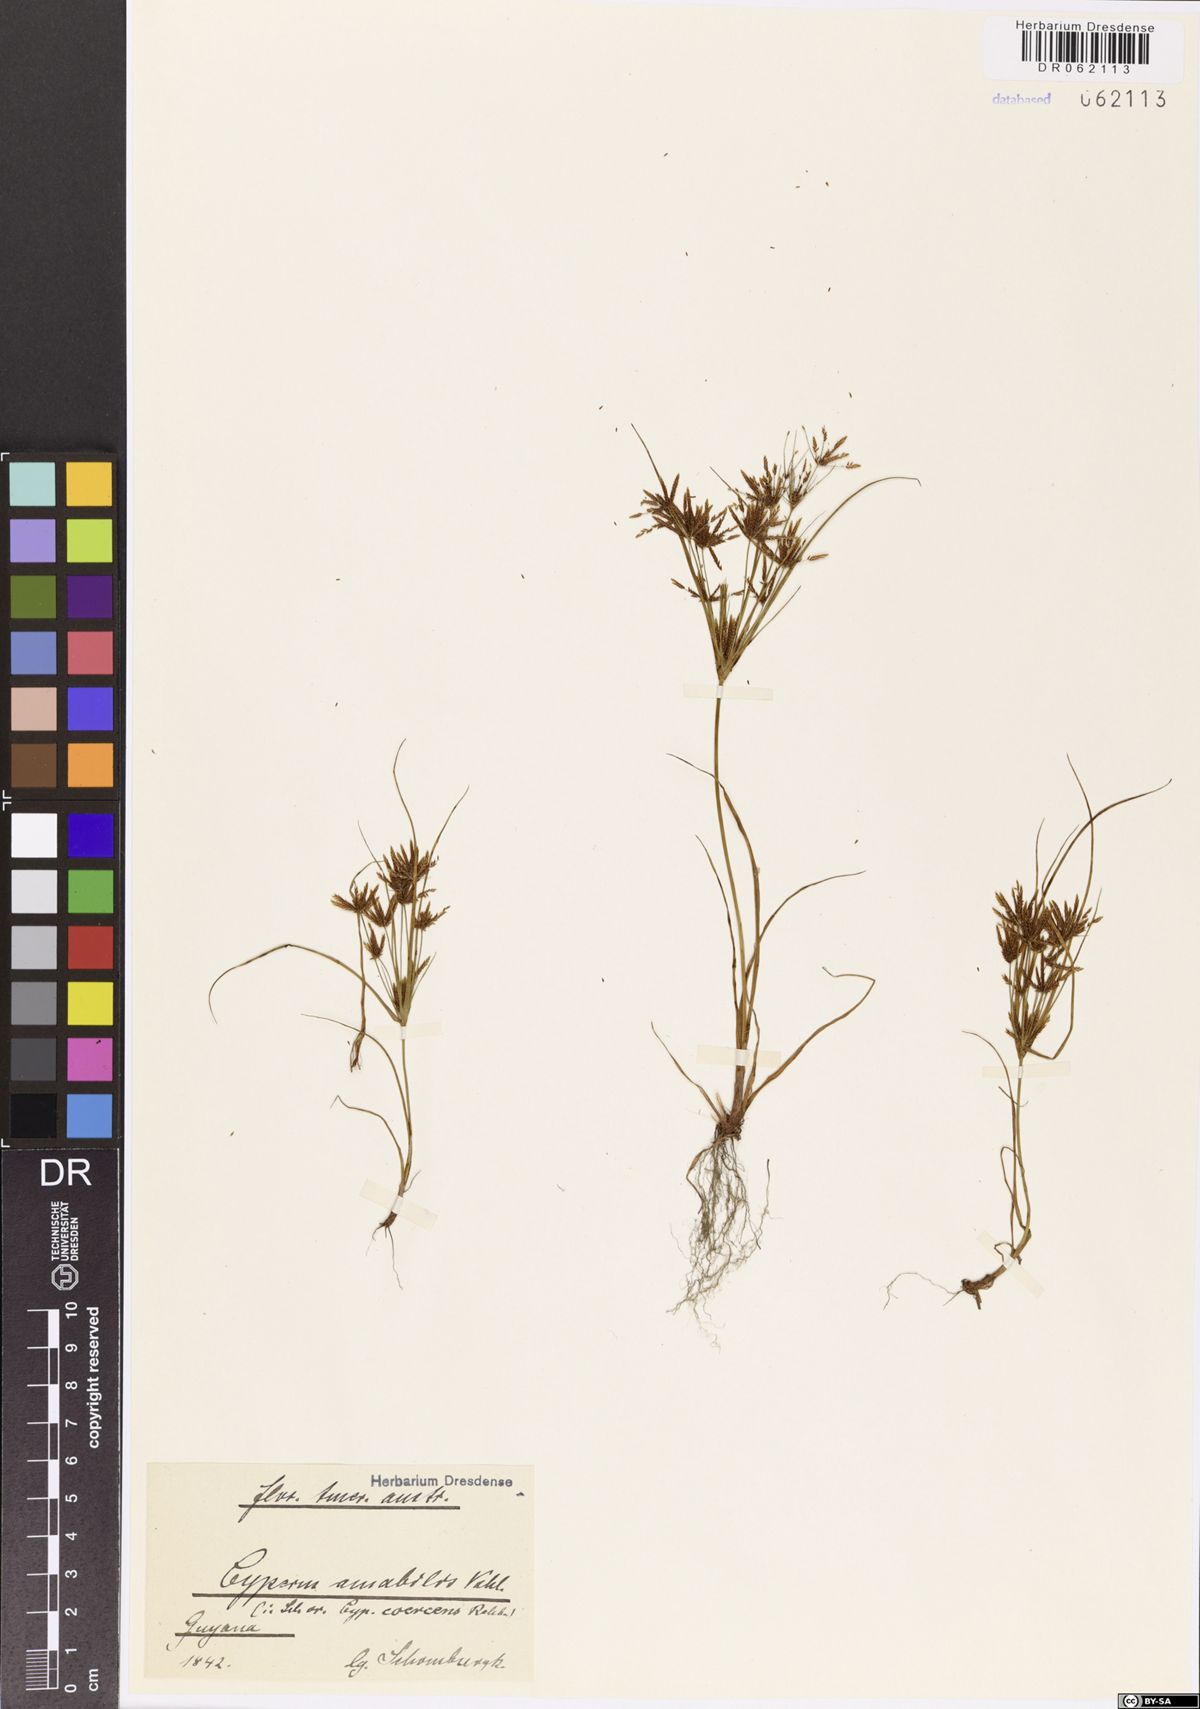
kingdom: Plantae
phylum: Tracheophyta
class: Liliopsida
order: Poales
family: Cyperaceae
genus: Cyperus
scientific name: Cyperus amabilis
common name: Foothill flat sedge
